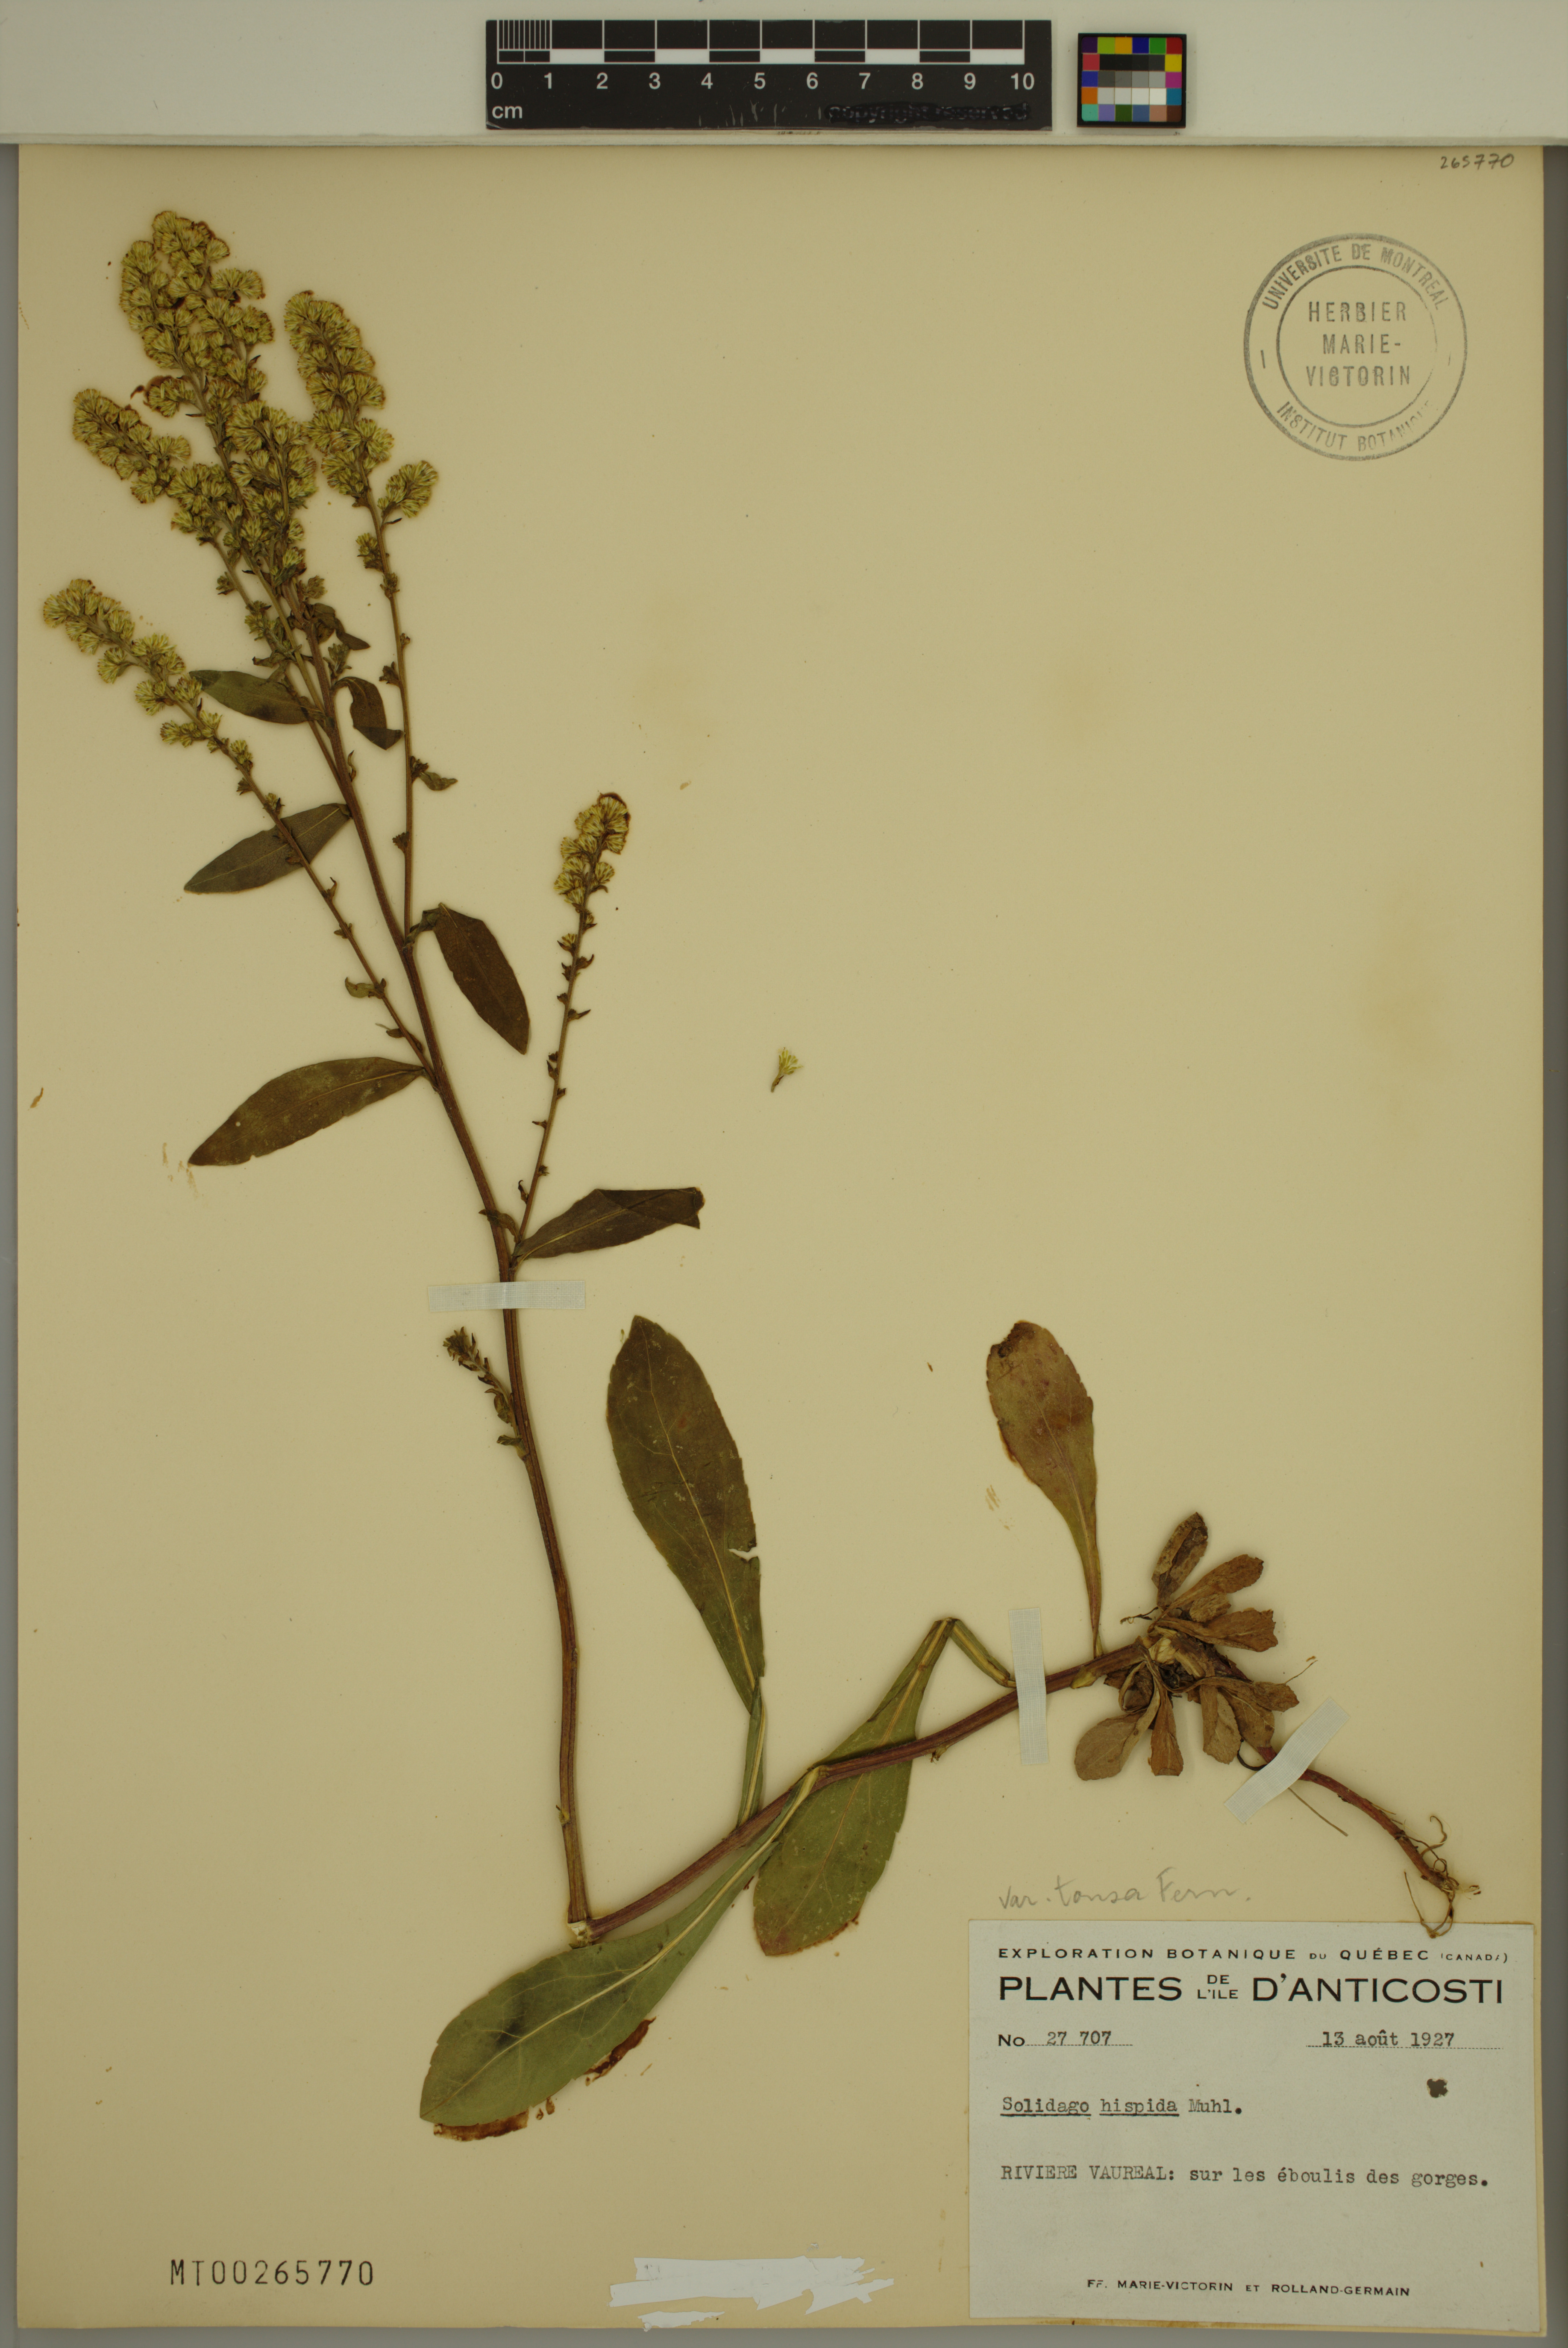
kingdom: Plantae
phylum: Tracheophyta
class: Magnoliopsida
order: Asterales
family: Asteraceae
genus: Solidago
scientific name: Solidago hispida
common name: Hairy goldenrod
